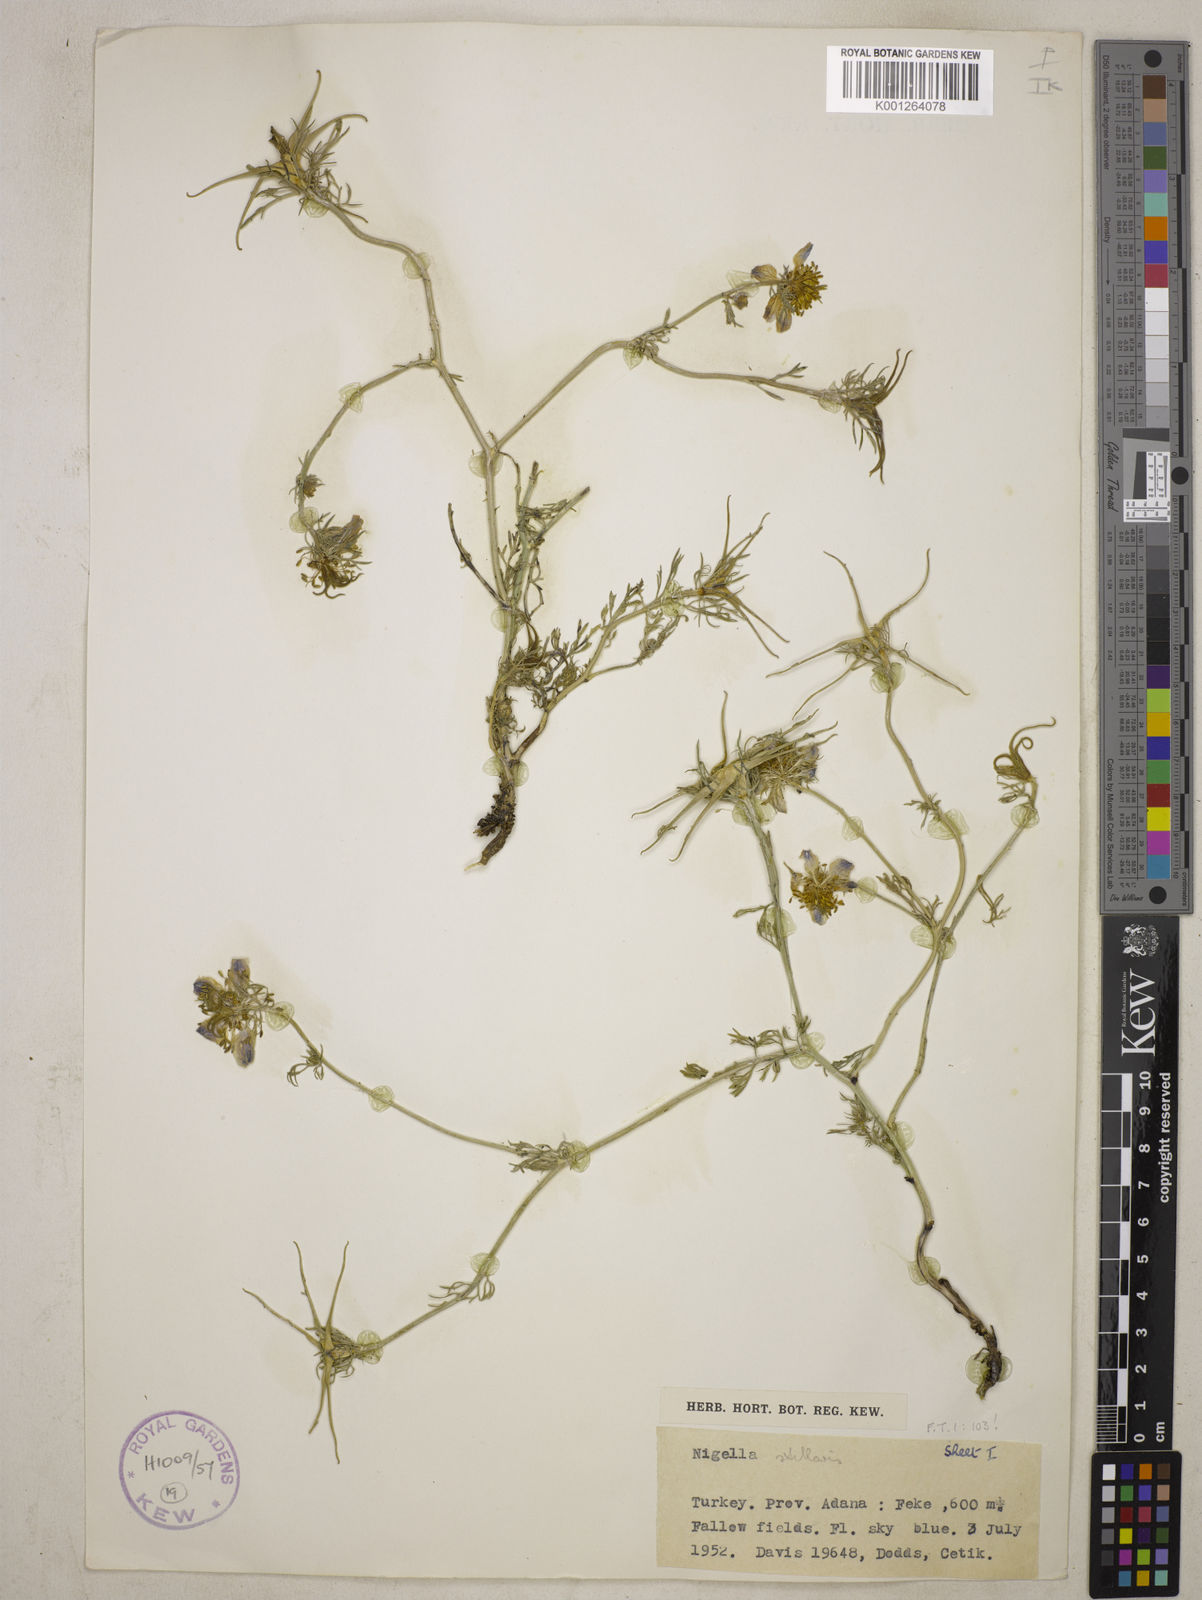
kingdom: Plantae
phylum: Tracheophyta
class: Magnoliopsida
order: Ranunculales
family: Ranunculaceae
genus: Nigella
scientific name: Nigella stellaris
